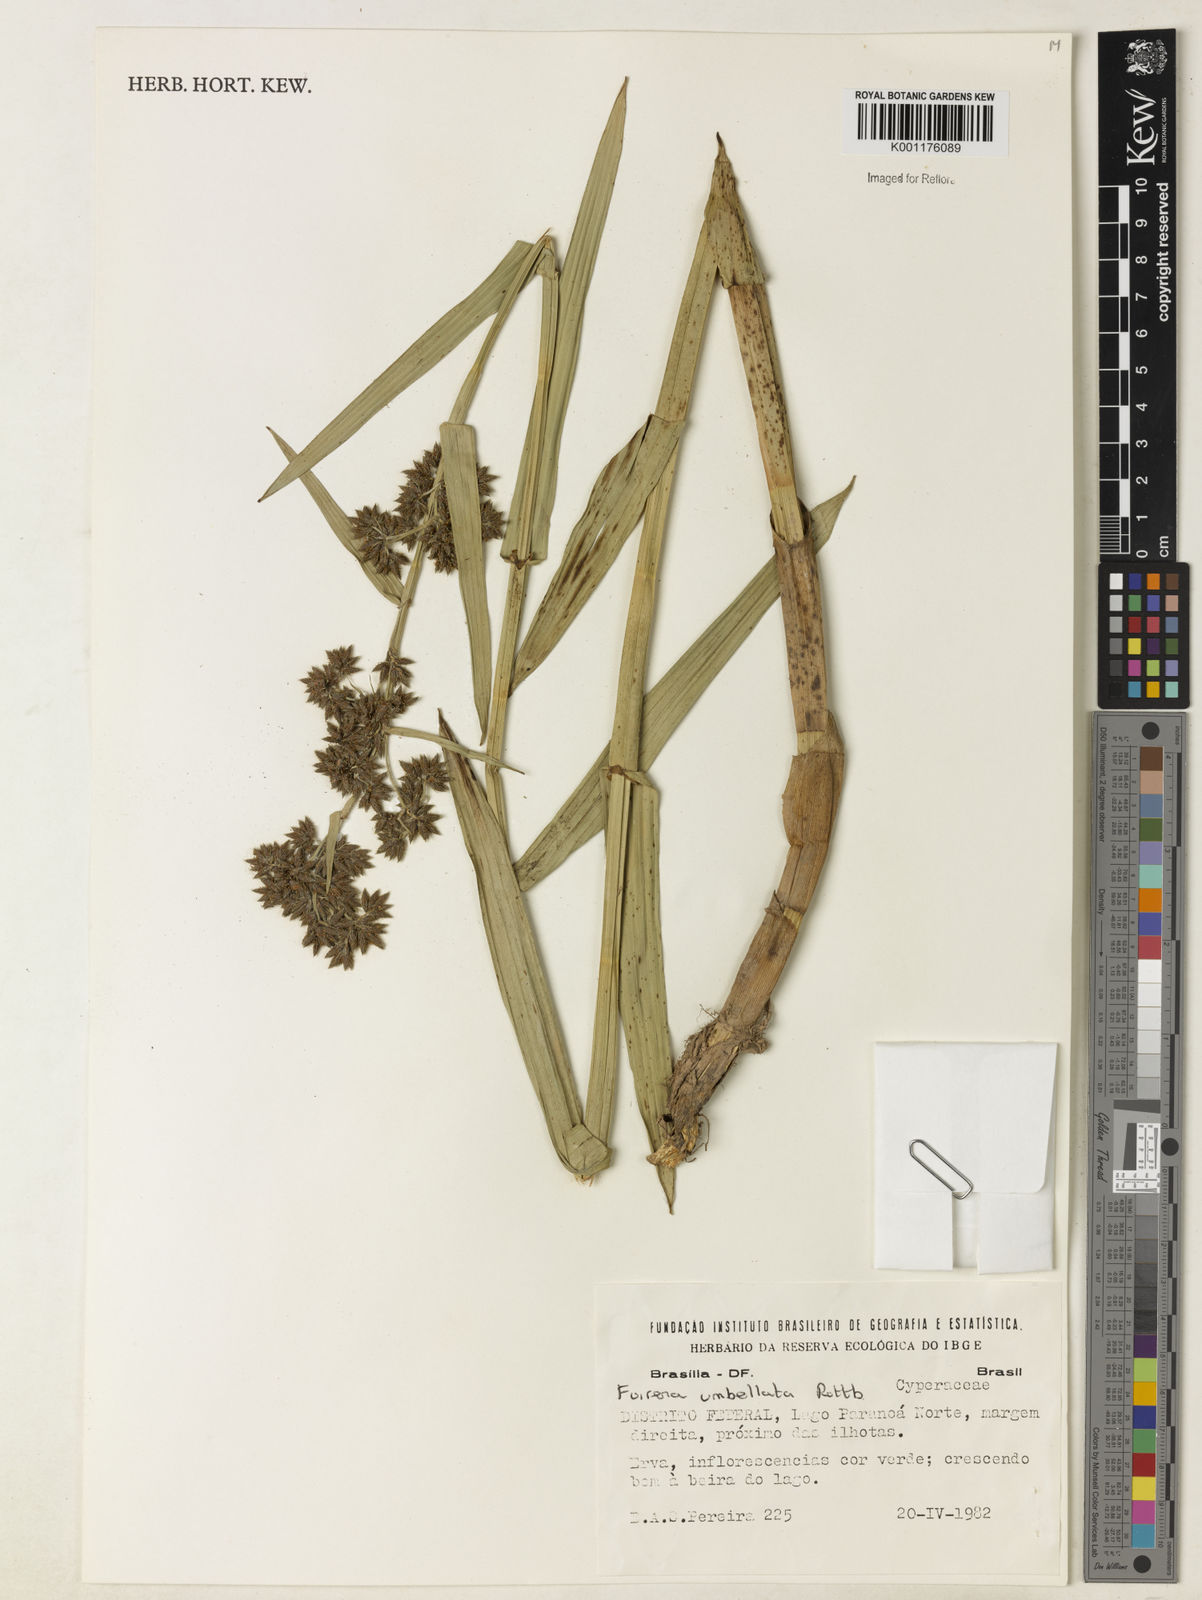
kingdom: Plantae
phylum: Tracheophyta
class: Liliopsida
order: Poales
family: Cyperaceae
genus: Fuirena
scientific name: Fuirena umbellata
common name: Yefen
